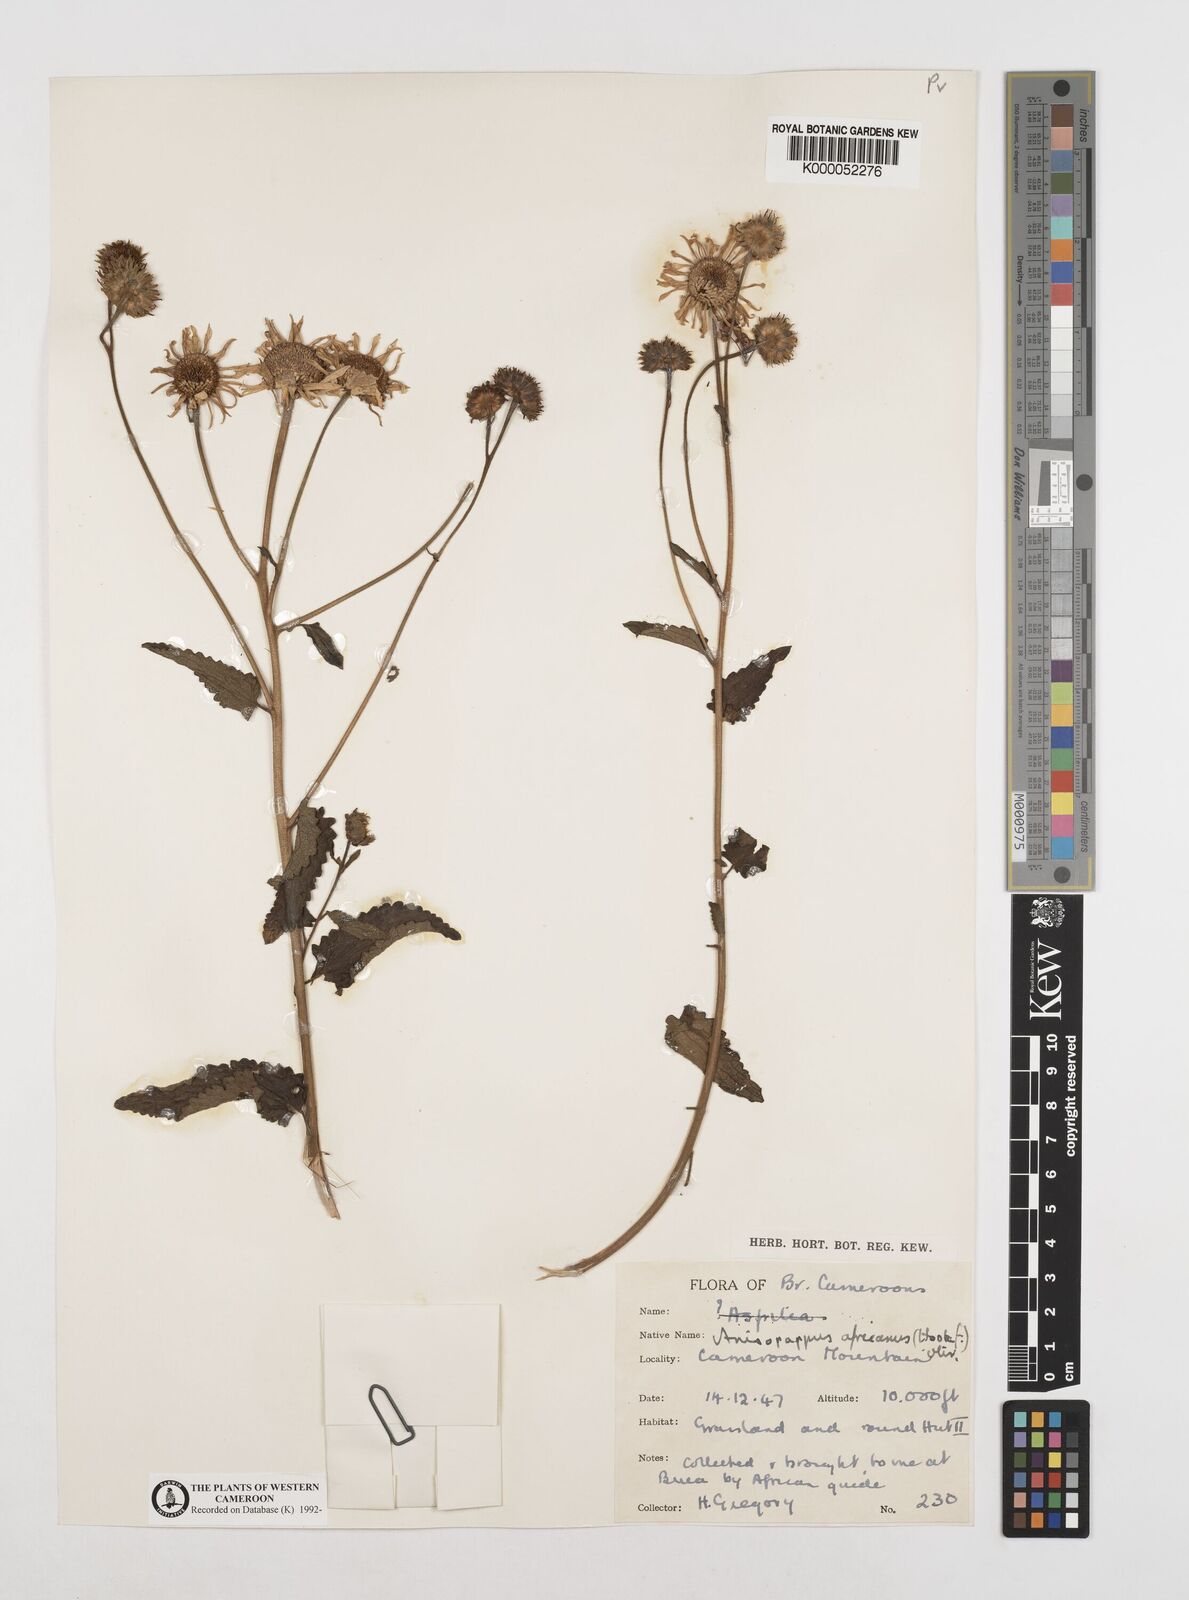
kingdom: Plantae
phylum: Tracheophyta
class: Magnoliopsida
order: Asterales
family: Asteraceae
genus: Anisopappus
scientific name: Anisopappus chinensis
